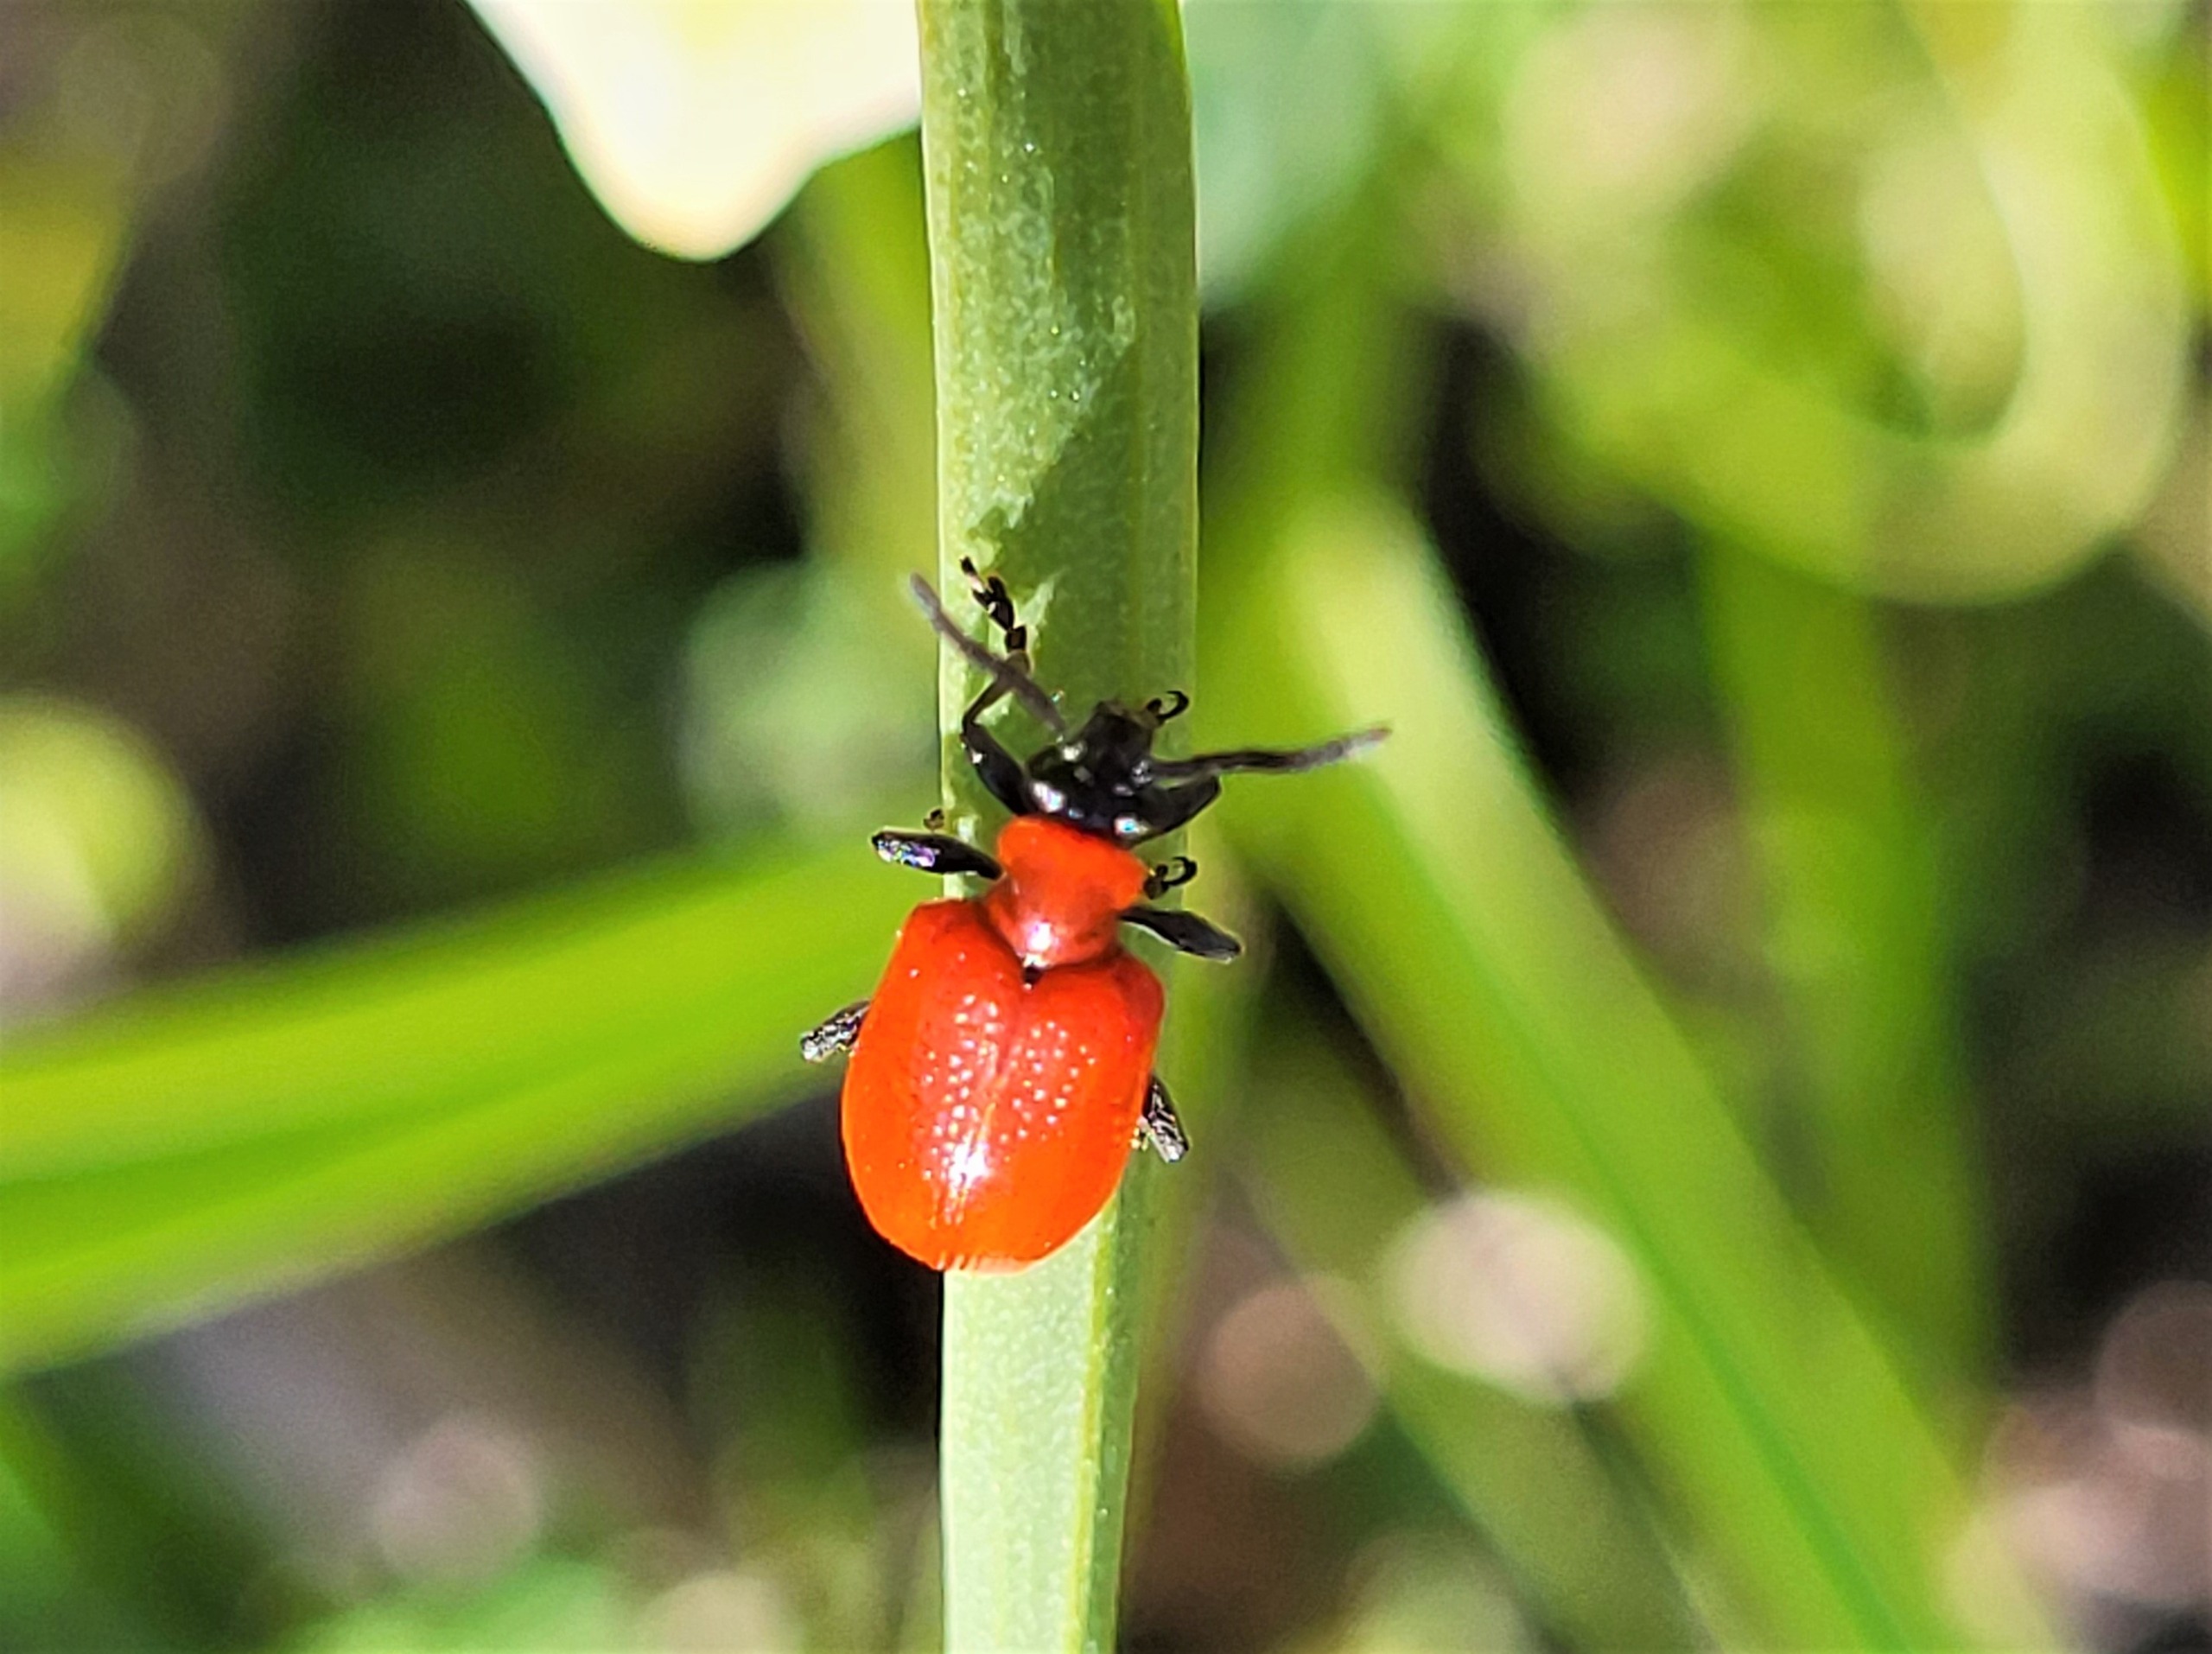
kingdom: Animalia
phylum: Arthropoda
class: Insecta
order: Coleoptera
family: Chrysomelidae
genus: Lilioceris
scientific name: Lilioceris lilii
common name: Liljebille
